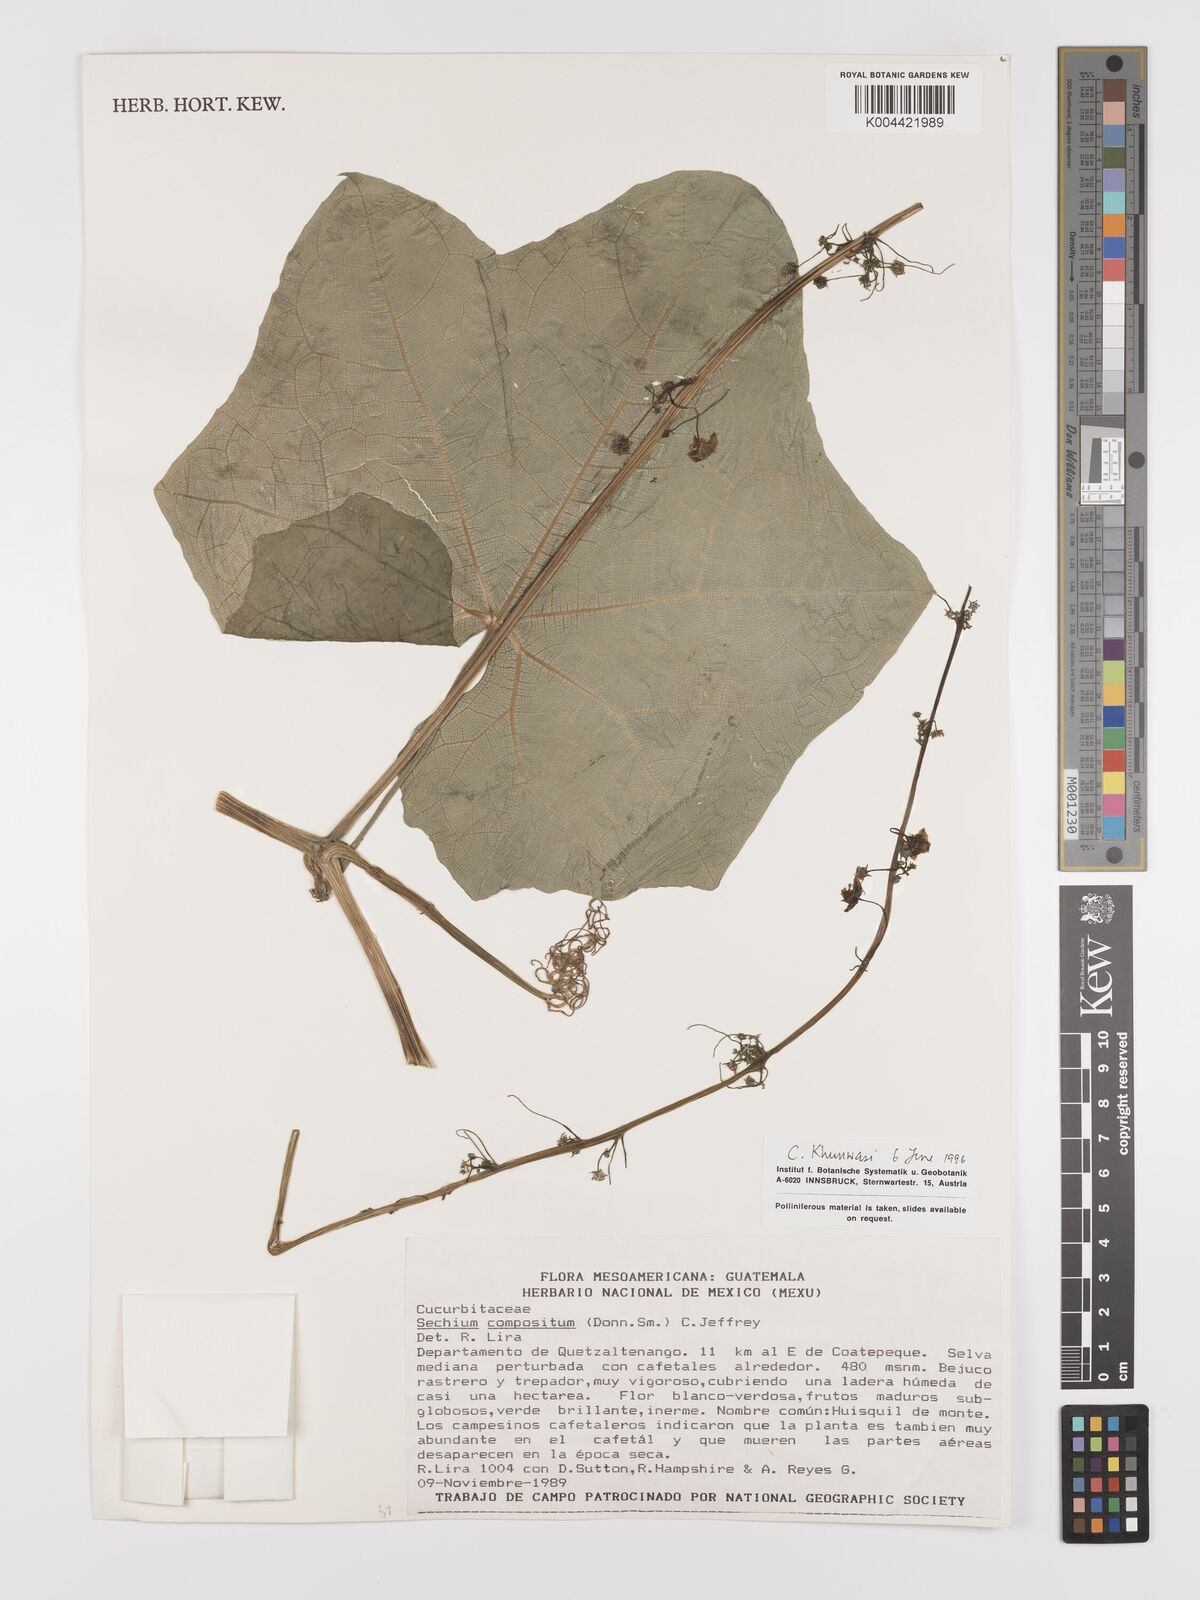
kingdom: Plantae
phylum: Tracheophyta
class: Magnoliopsida
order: Cucurbitales
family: Cucurbitaceae
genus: Sechium
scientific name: Sechium compositum
